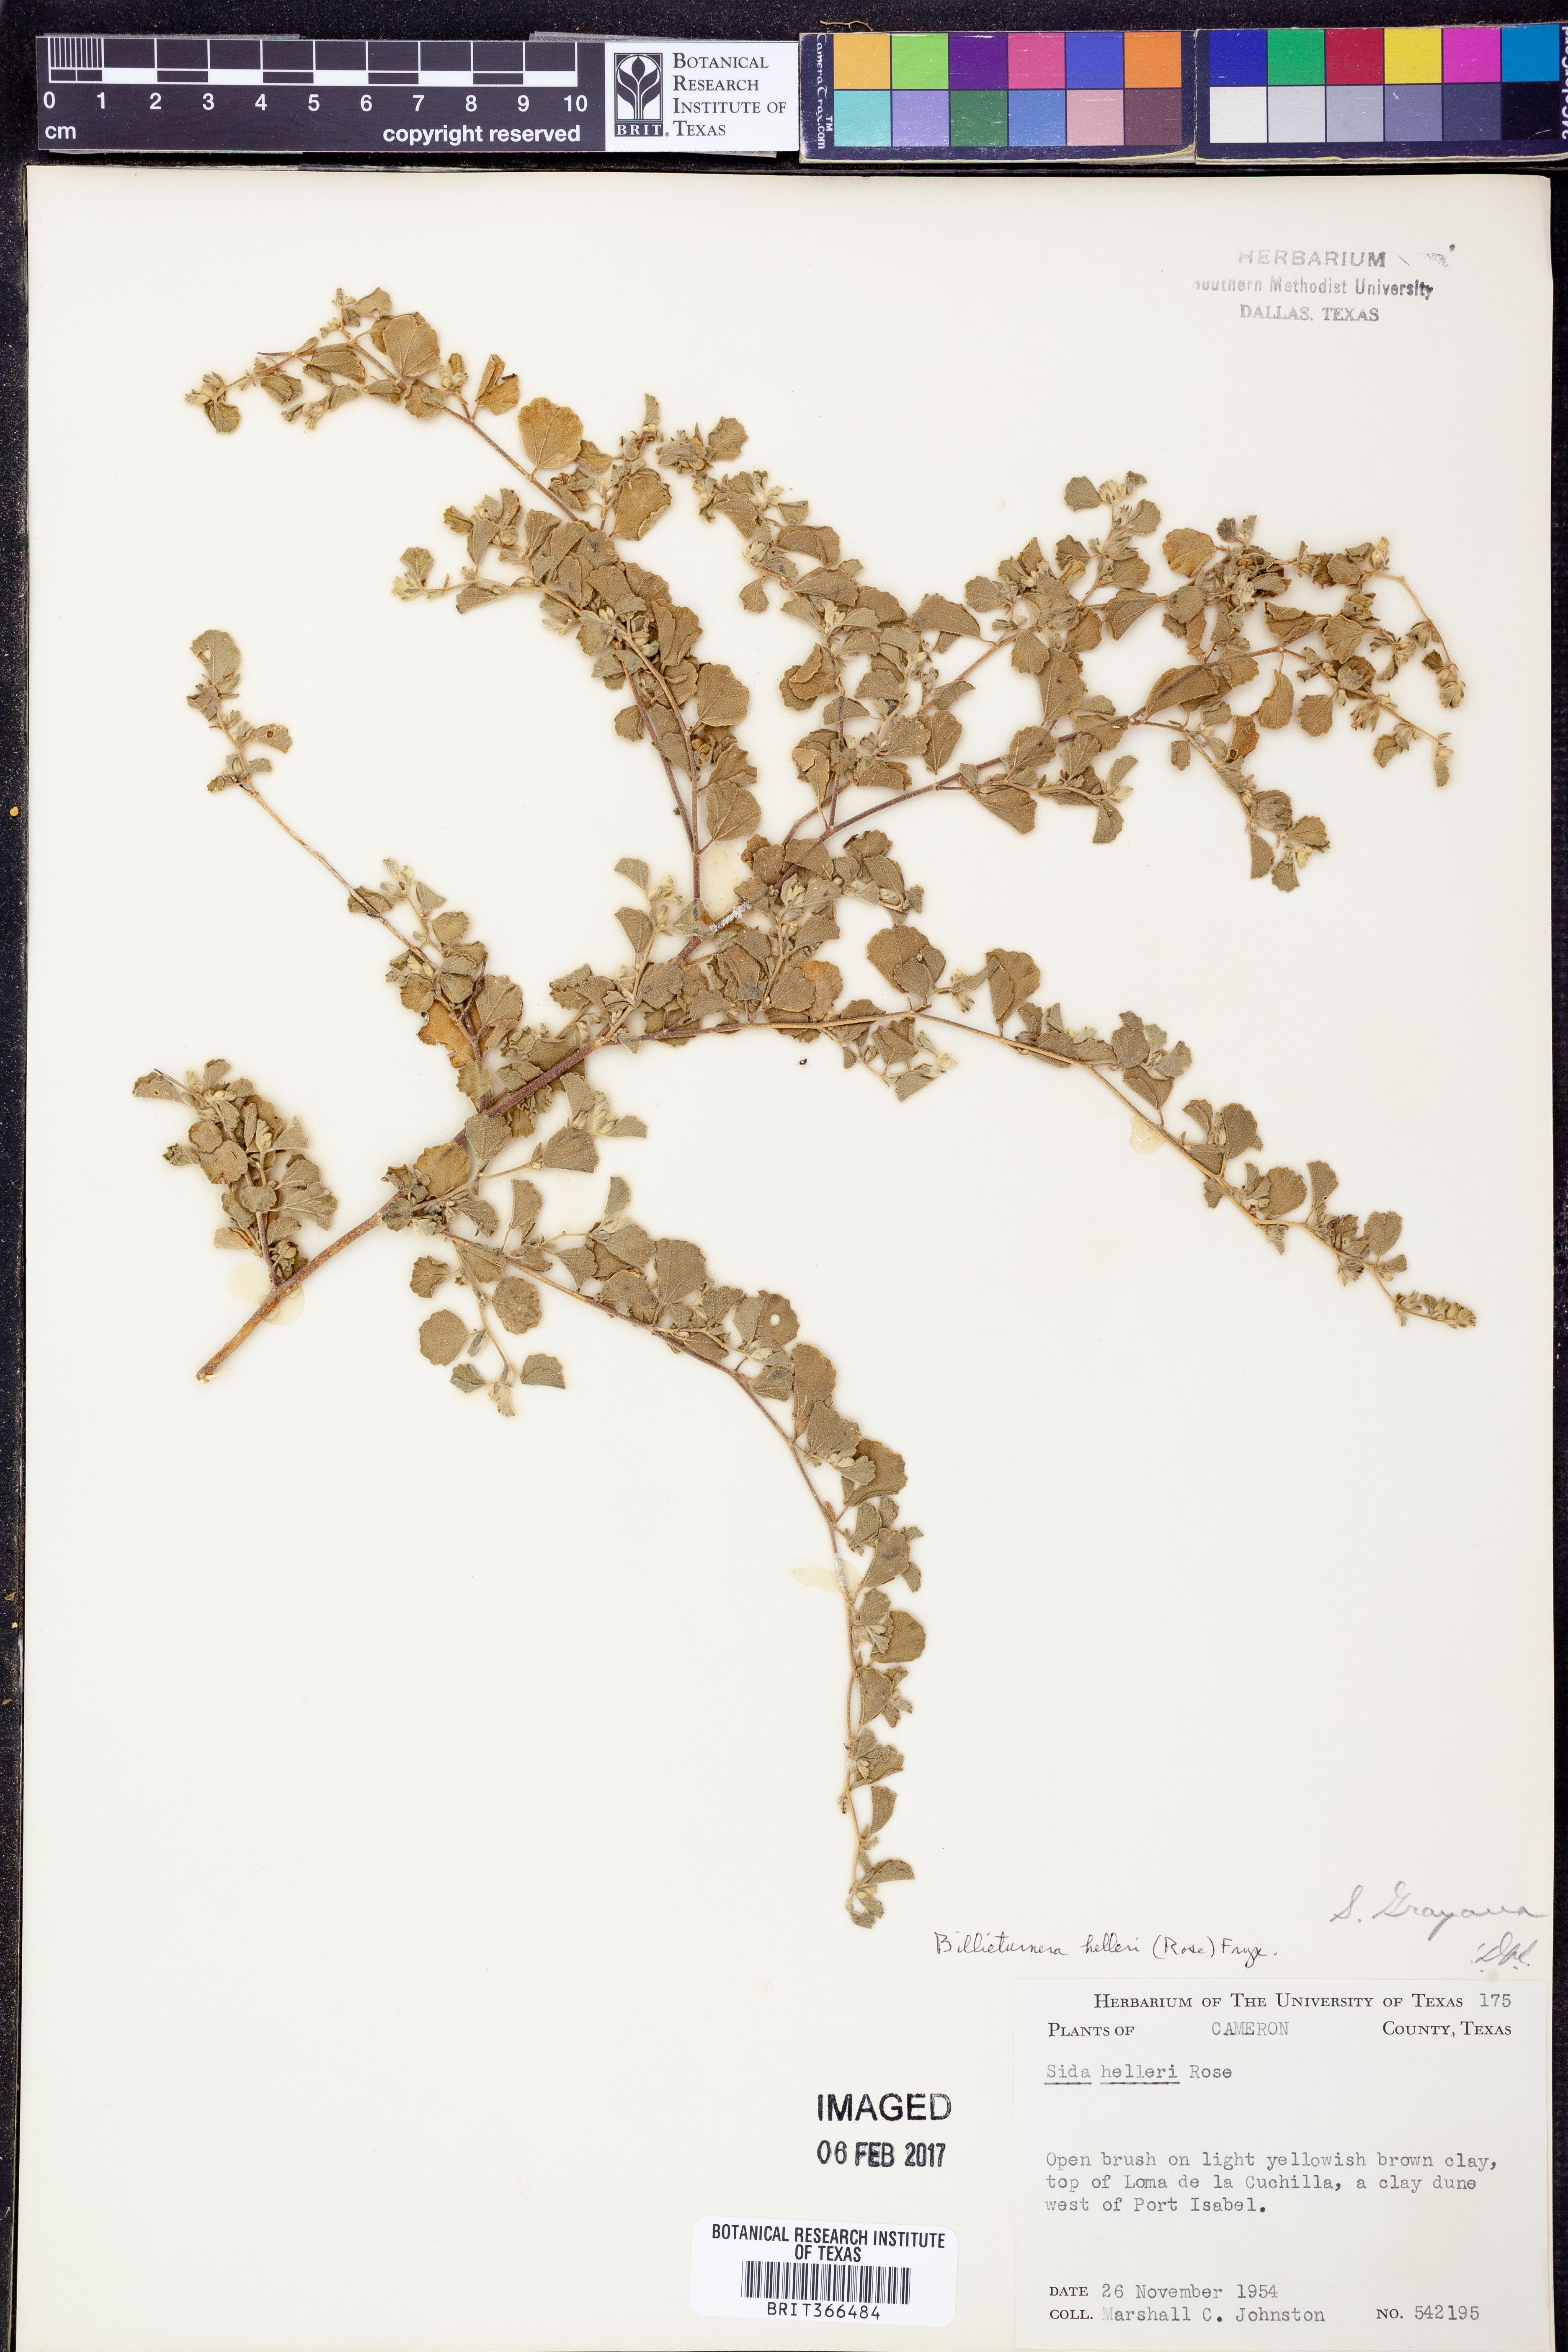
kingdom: Plantae
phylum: Tracheophyta
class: Magnoliopsida
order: Malvales
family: Malvaceae
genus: Billieturnera
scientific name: Billieturnera helleri
